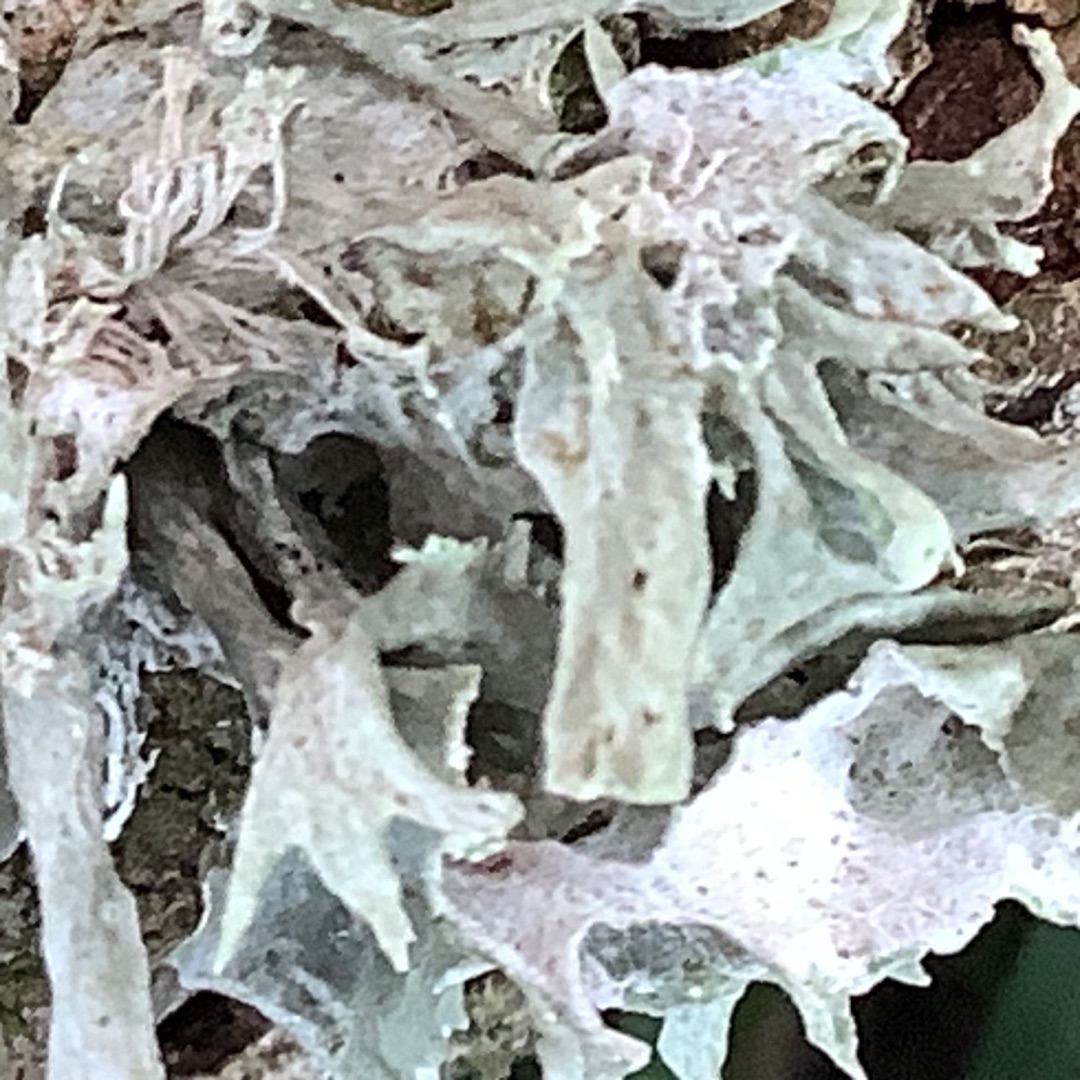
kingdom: Fungi
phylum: Ascomycota
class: Lecanoromycetes
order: Lecanorales
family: Ramalinaceae
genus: Ramalina
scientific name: Ramalina farinacea
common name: Melet grenlav
